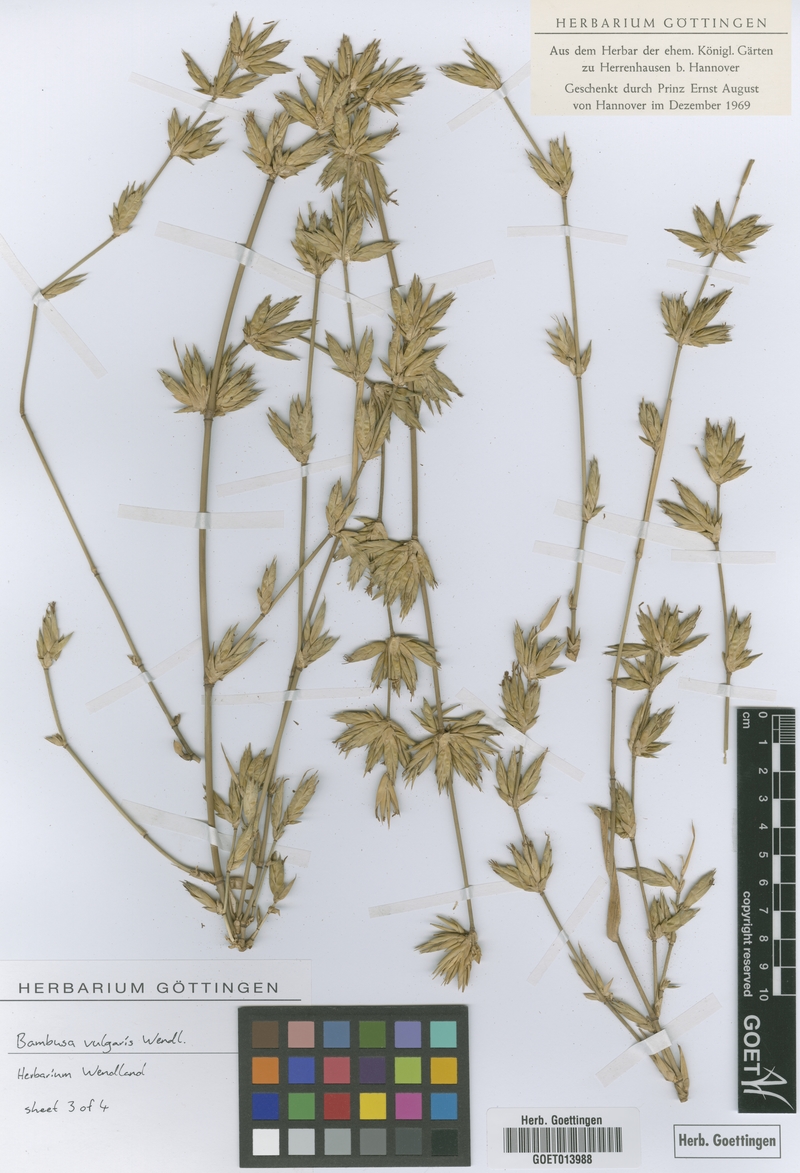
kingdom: Plantae
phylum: Tracheophyta
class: Liliopsida
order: Poales
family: Poaceae
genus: Bambusa
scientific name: Bambusa vulgaris
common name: Common bamboo
